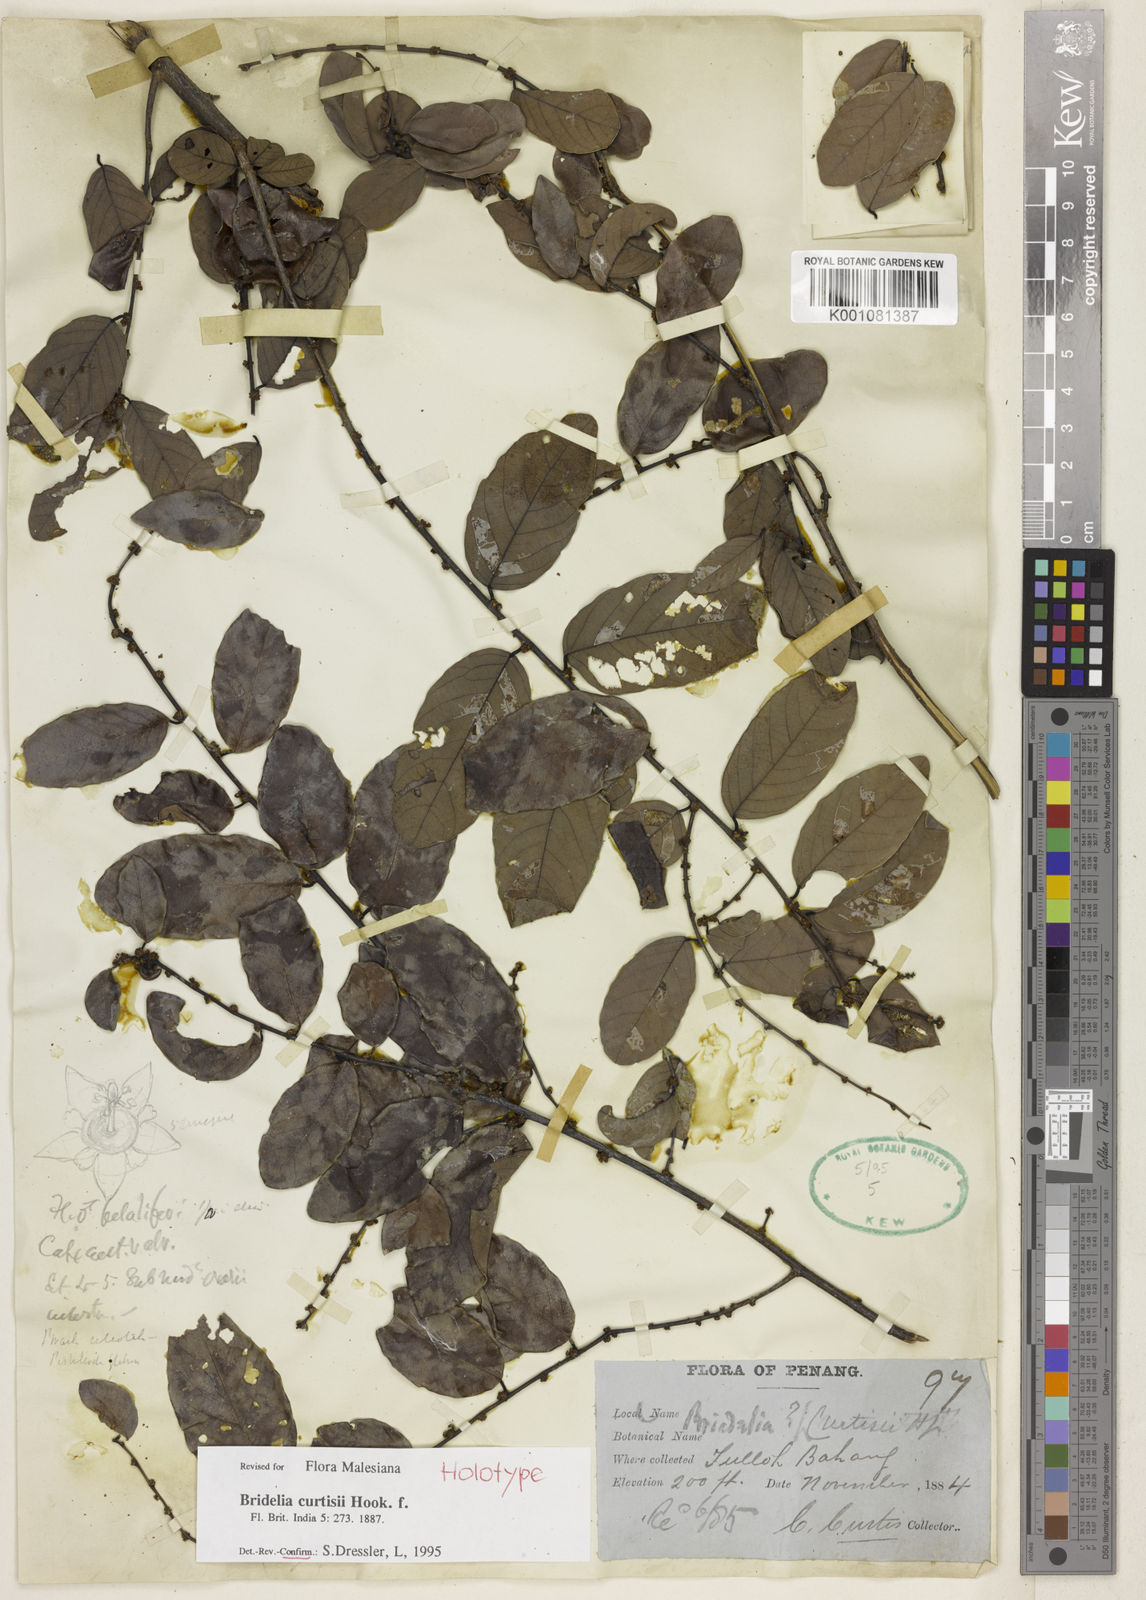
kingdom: Plantae
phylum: Tracheophyta
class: Magnoliopsida
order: Malpighiales
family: Phyllanthaceae
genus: Bridelia
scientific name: Bridelia curtisii
